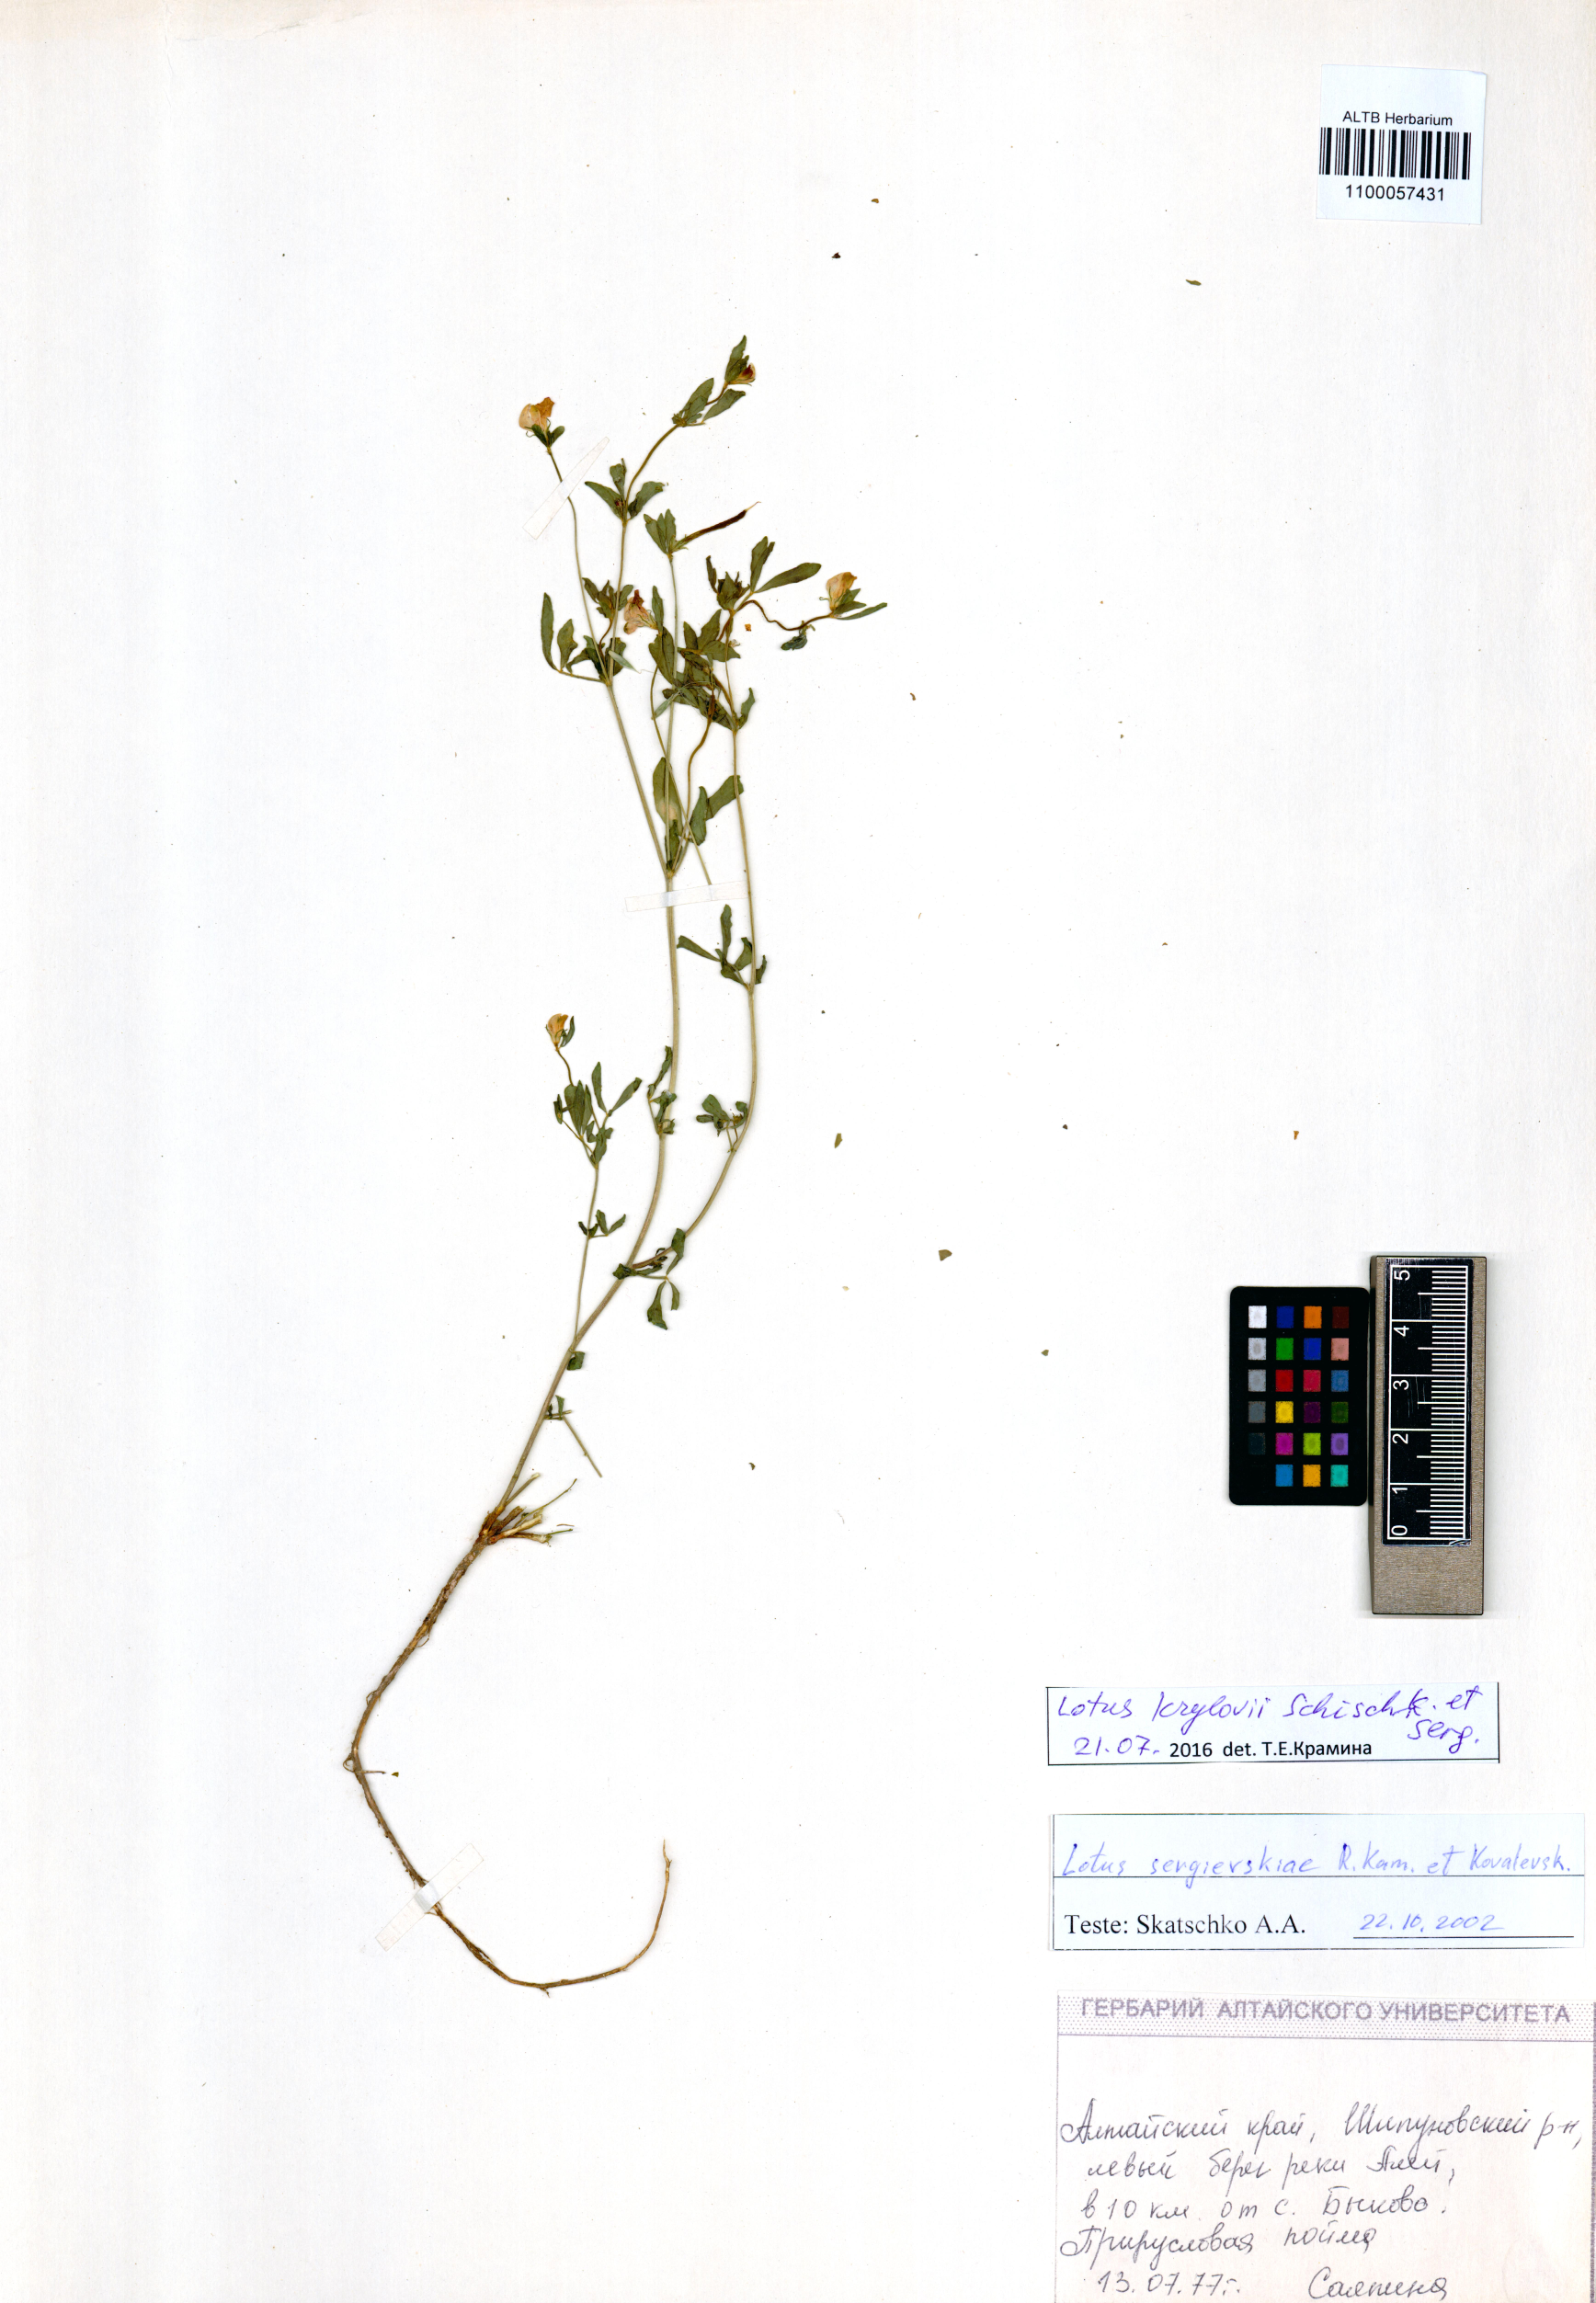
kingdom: Plantae
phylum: Tracheophyta
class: Magnoliopsida
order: Fabales
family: Fabaceae
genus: Lotus
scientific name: Lotus krylovii
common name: Krylov's bird's-foot trefoil
